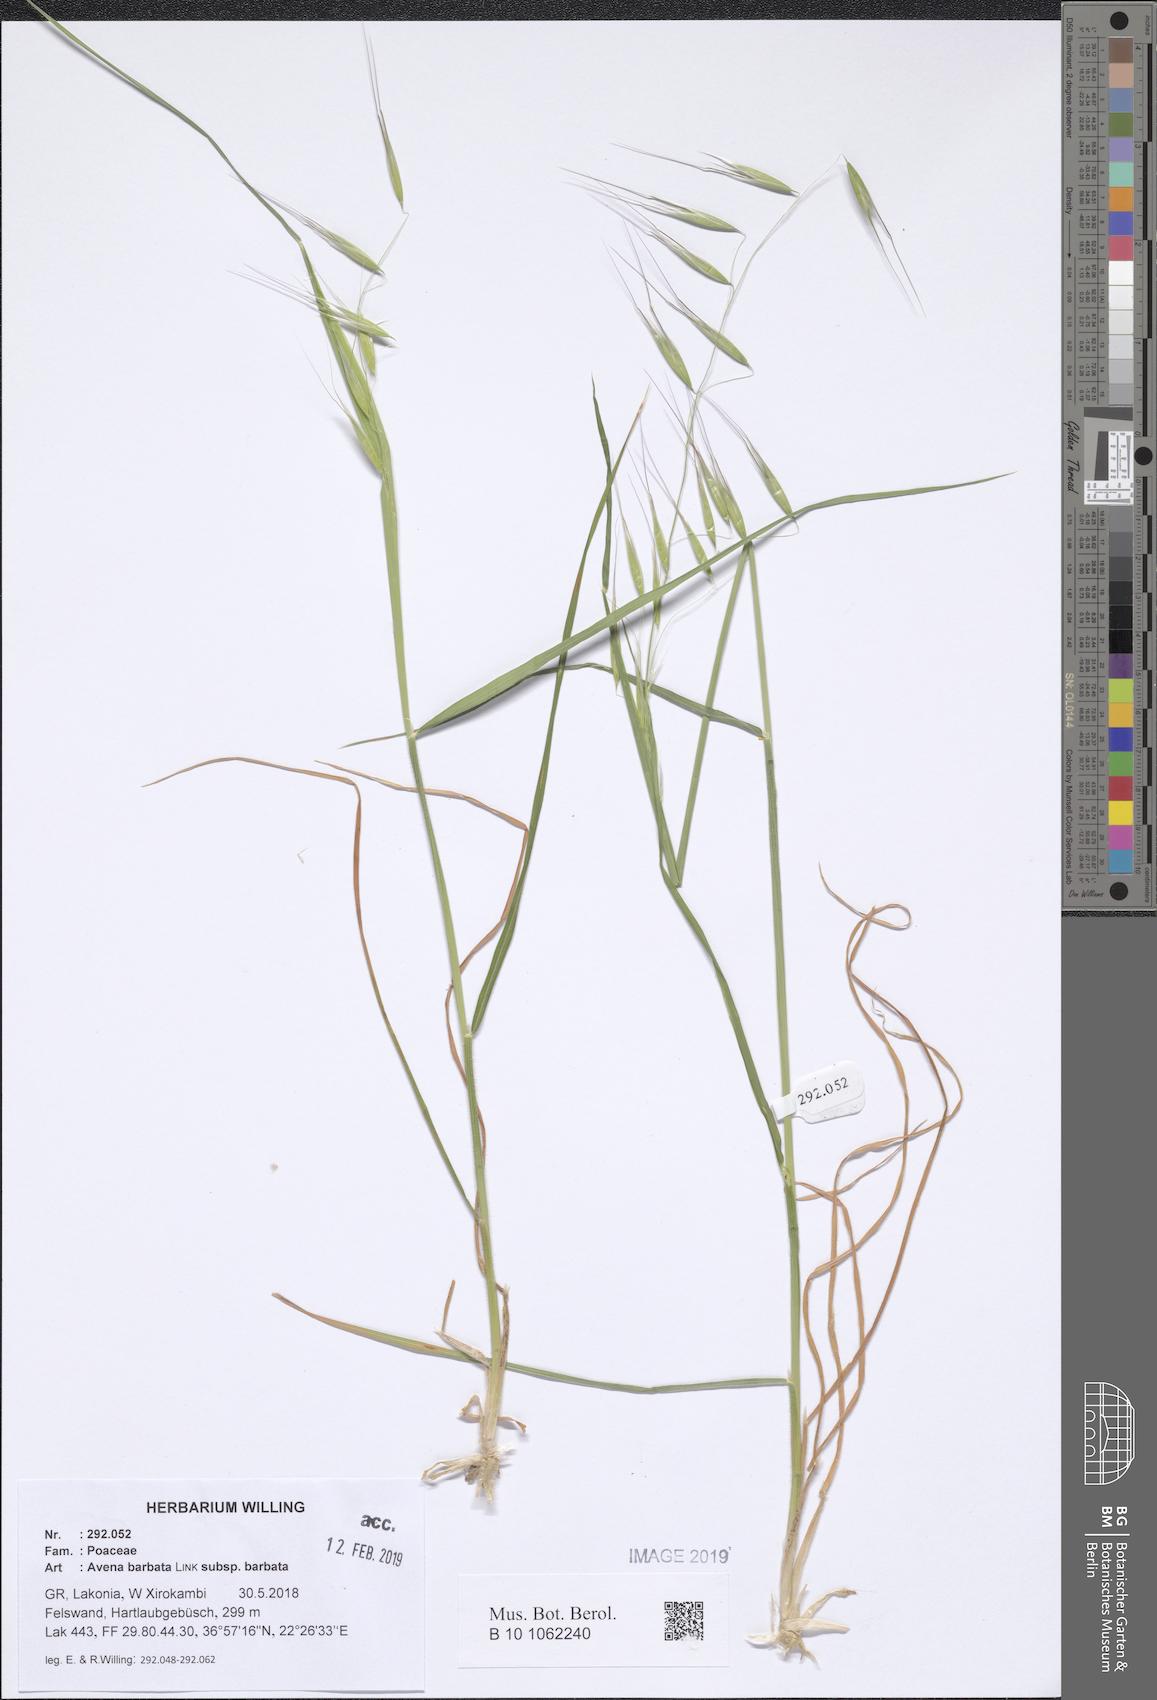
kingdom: Plantae
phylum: Tracheophyta
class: Liliopsida
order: Poales
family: Poaceae
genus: Avena
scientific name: Avena barbata
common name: Slender oat
